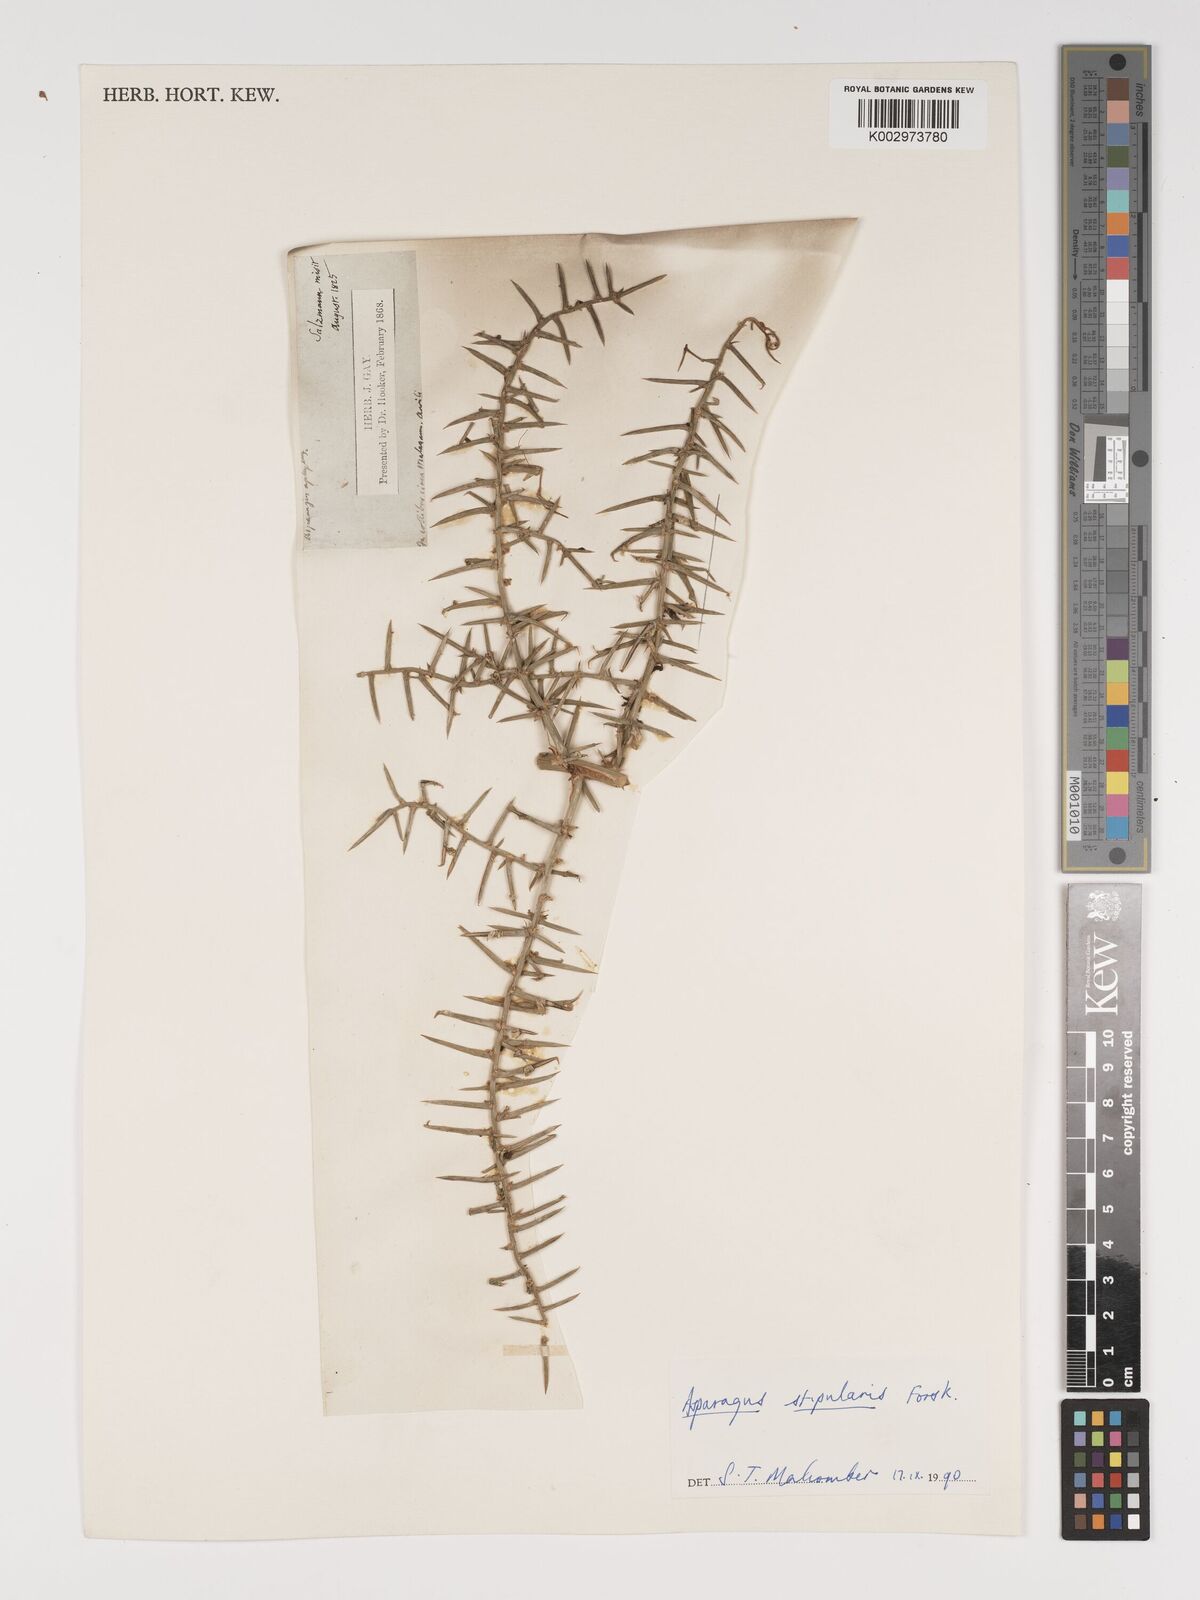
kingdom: Plantae
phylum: Tracheophyta
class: Liliopsida
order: Asparagales
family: Asparagaceae
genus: Asparagus
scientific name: Asparagus horridus
